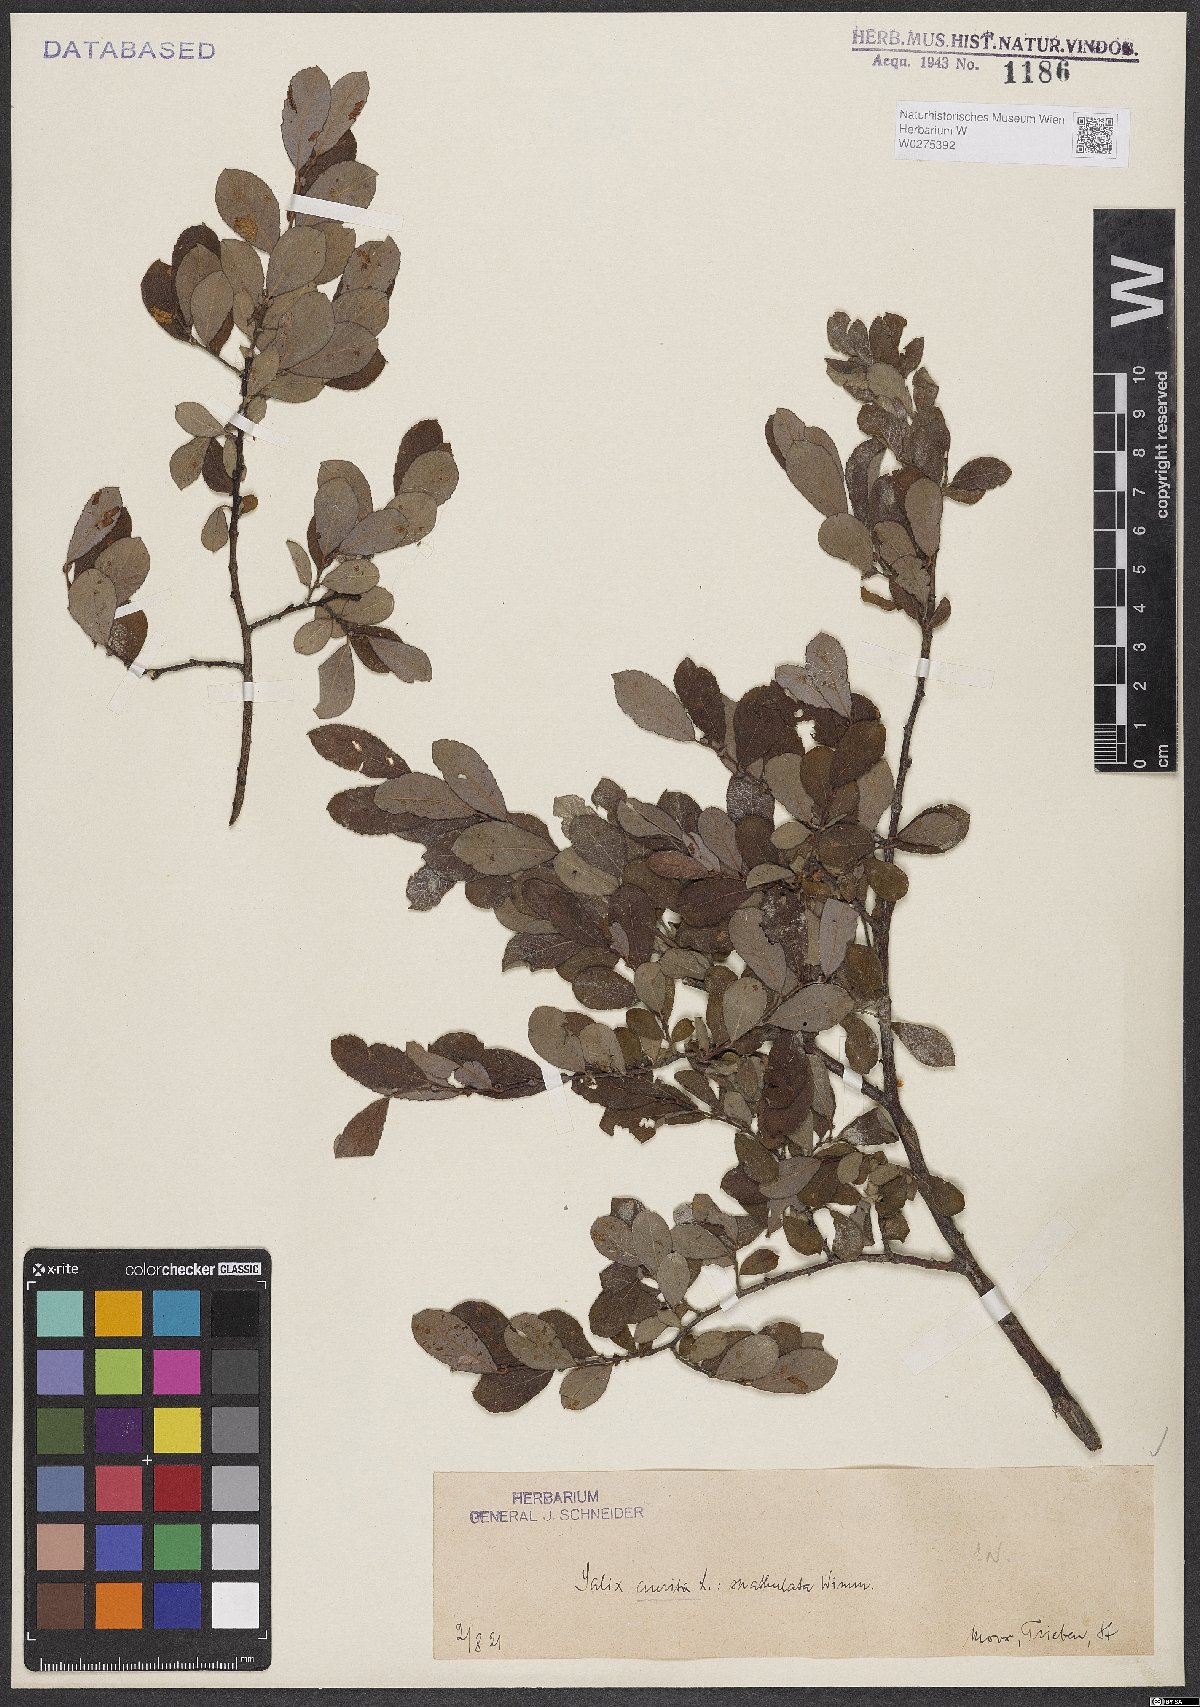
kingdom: Plantae
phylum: Tracheophyta
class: Magnoliopsida
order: Malpighiales
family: Salicaceae
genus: Salix
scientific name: Salix aurita
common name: Eared willow
